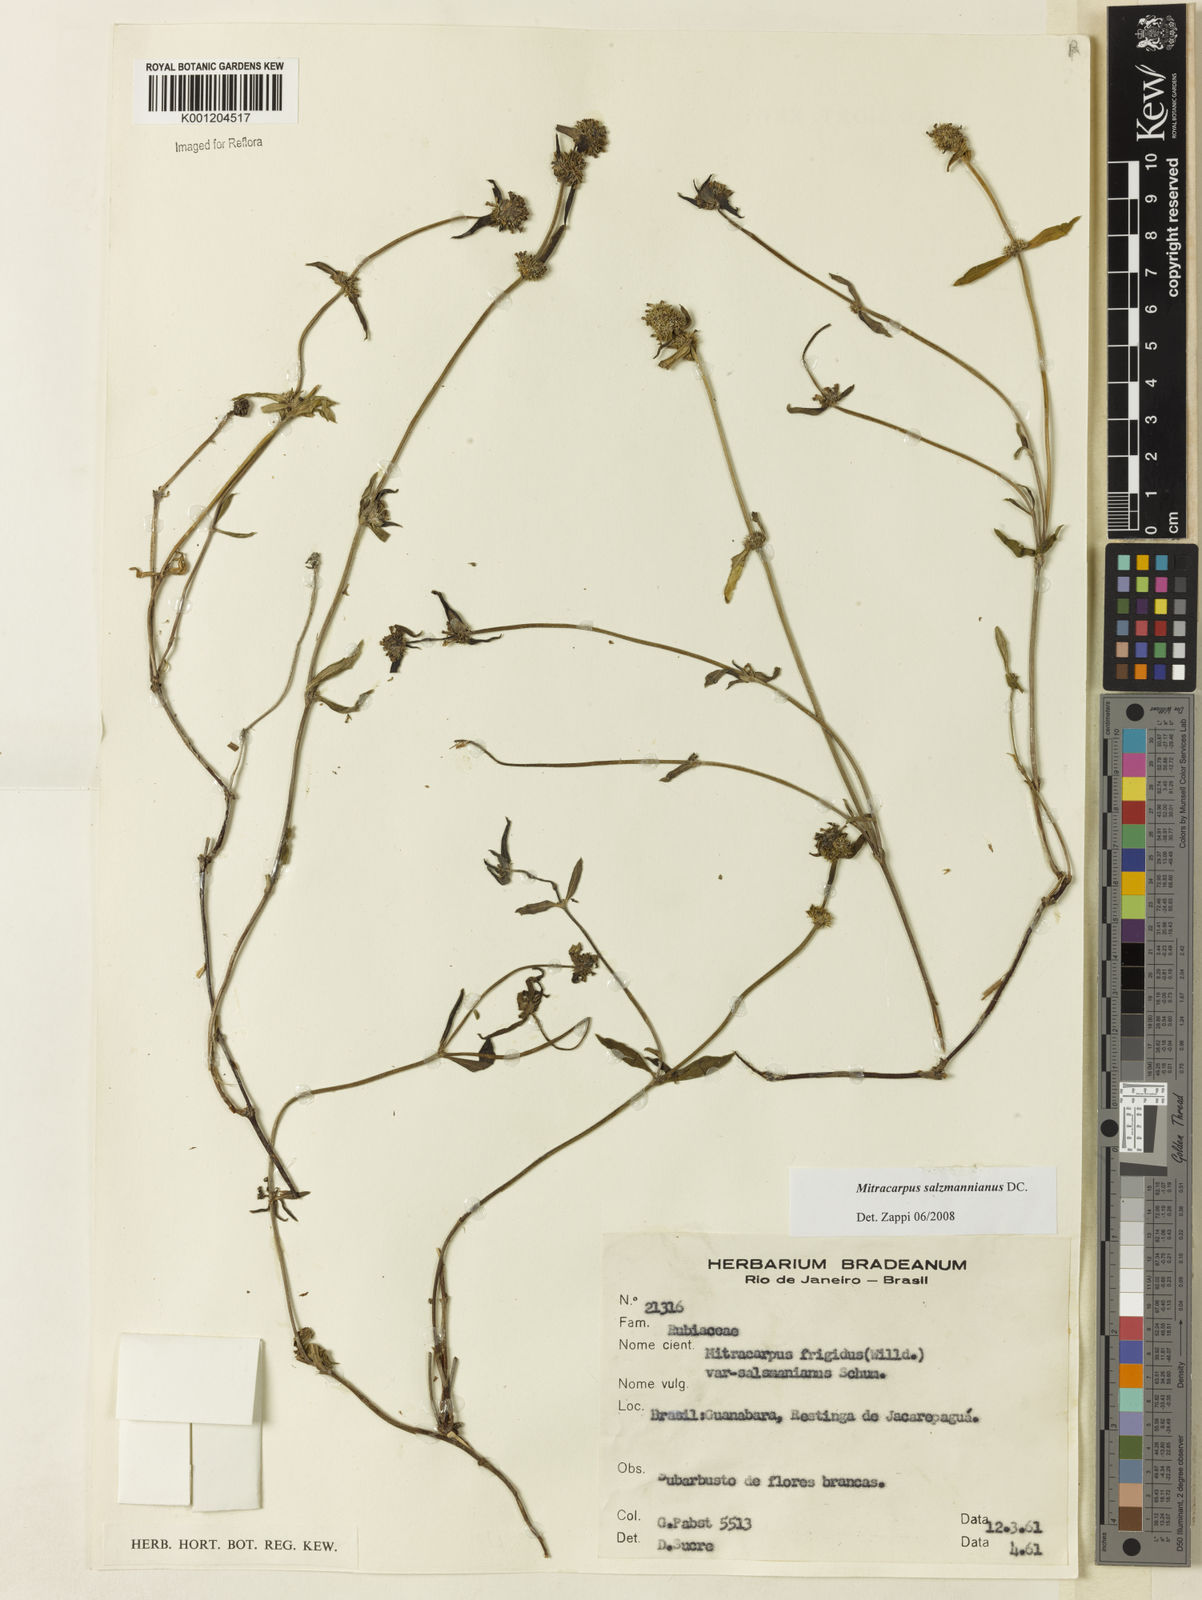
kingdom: Plantae
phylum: Tracheophyta
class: Magnoliopsida
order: Gentianales
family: Rubiaceae
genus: Mitracarpus
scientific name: Mitracarpus salzmannianus
